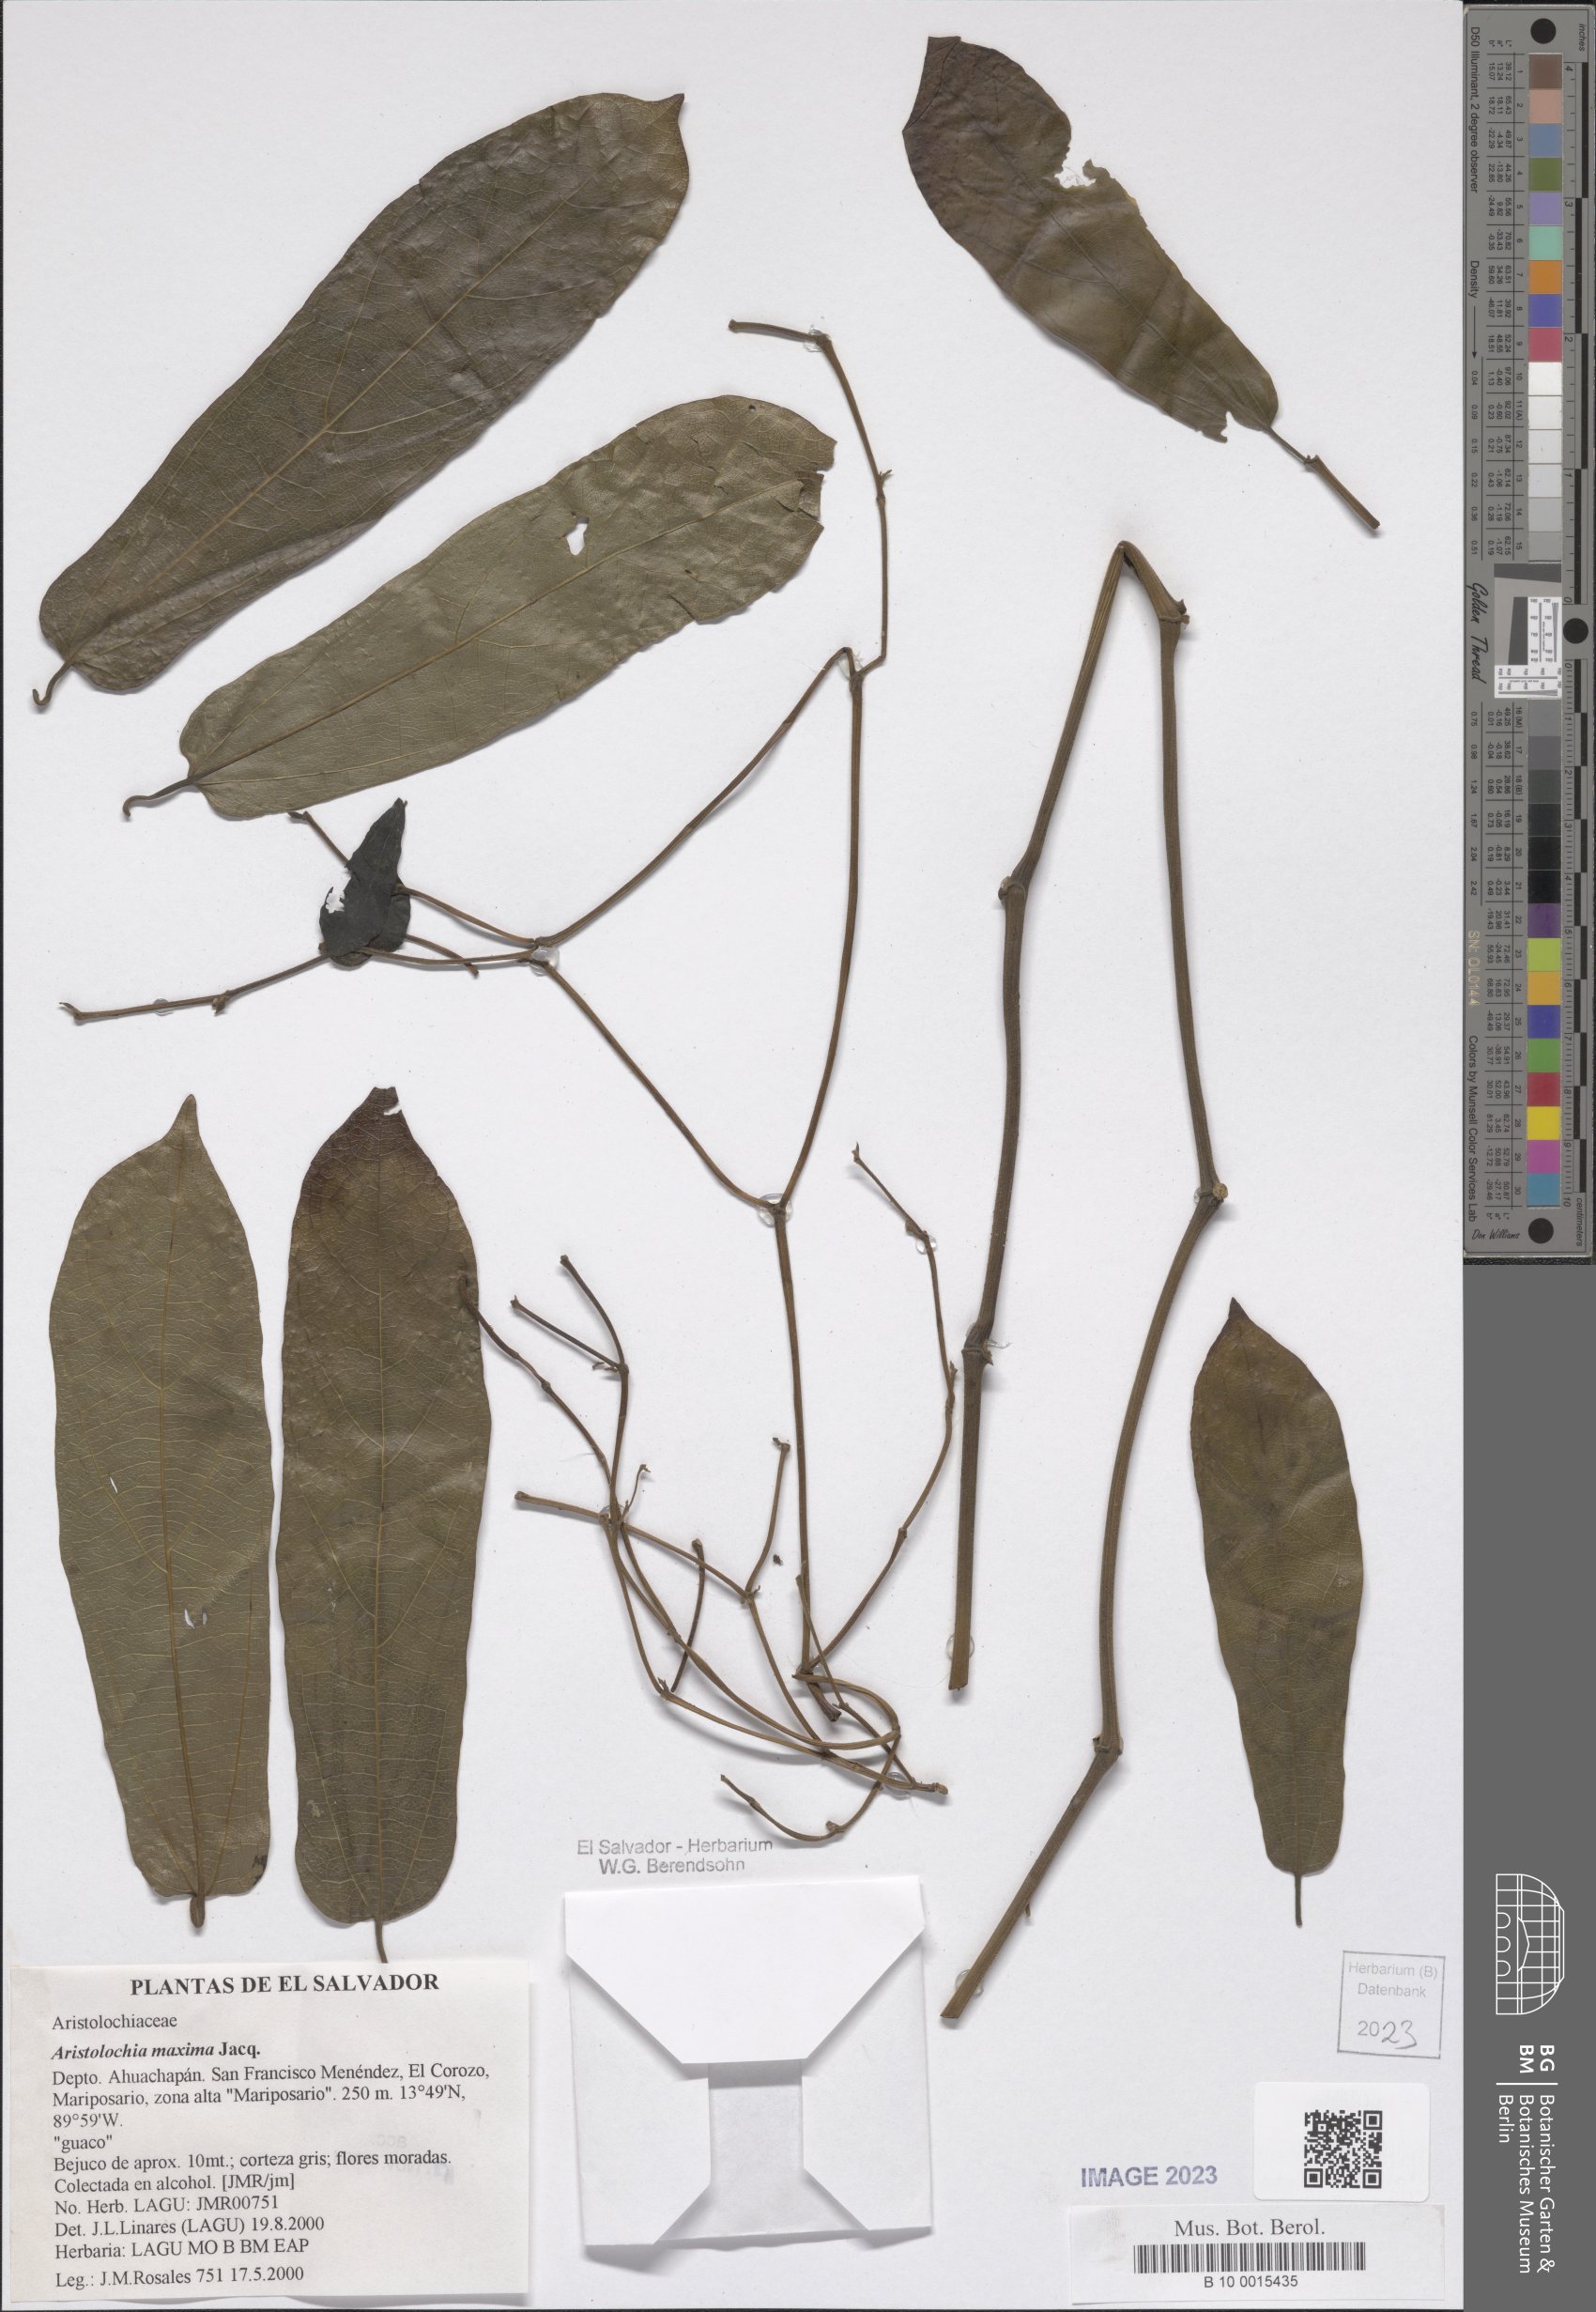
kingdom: Plantae
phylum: Tracheophyta
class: Magnoliopsida
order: Piperales
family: Aristolochiaceae
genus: Aristolochia
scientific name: Aristolochia maxima
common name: Florida dutchman's pipe
